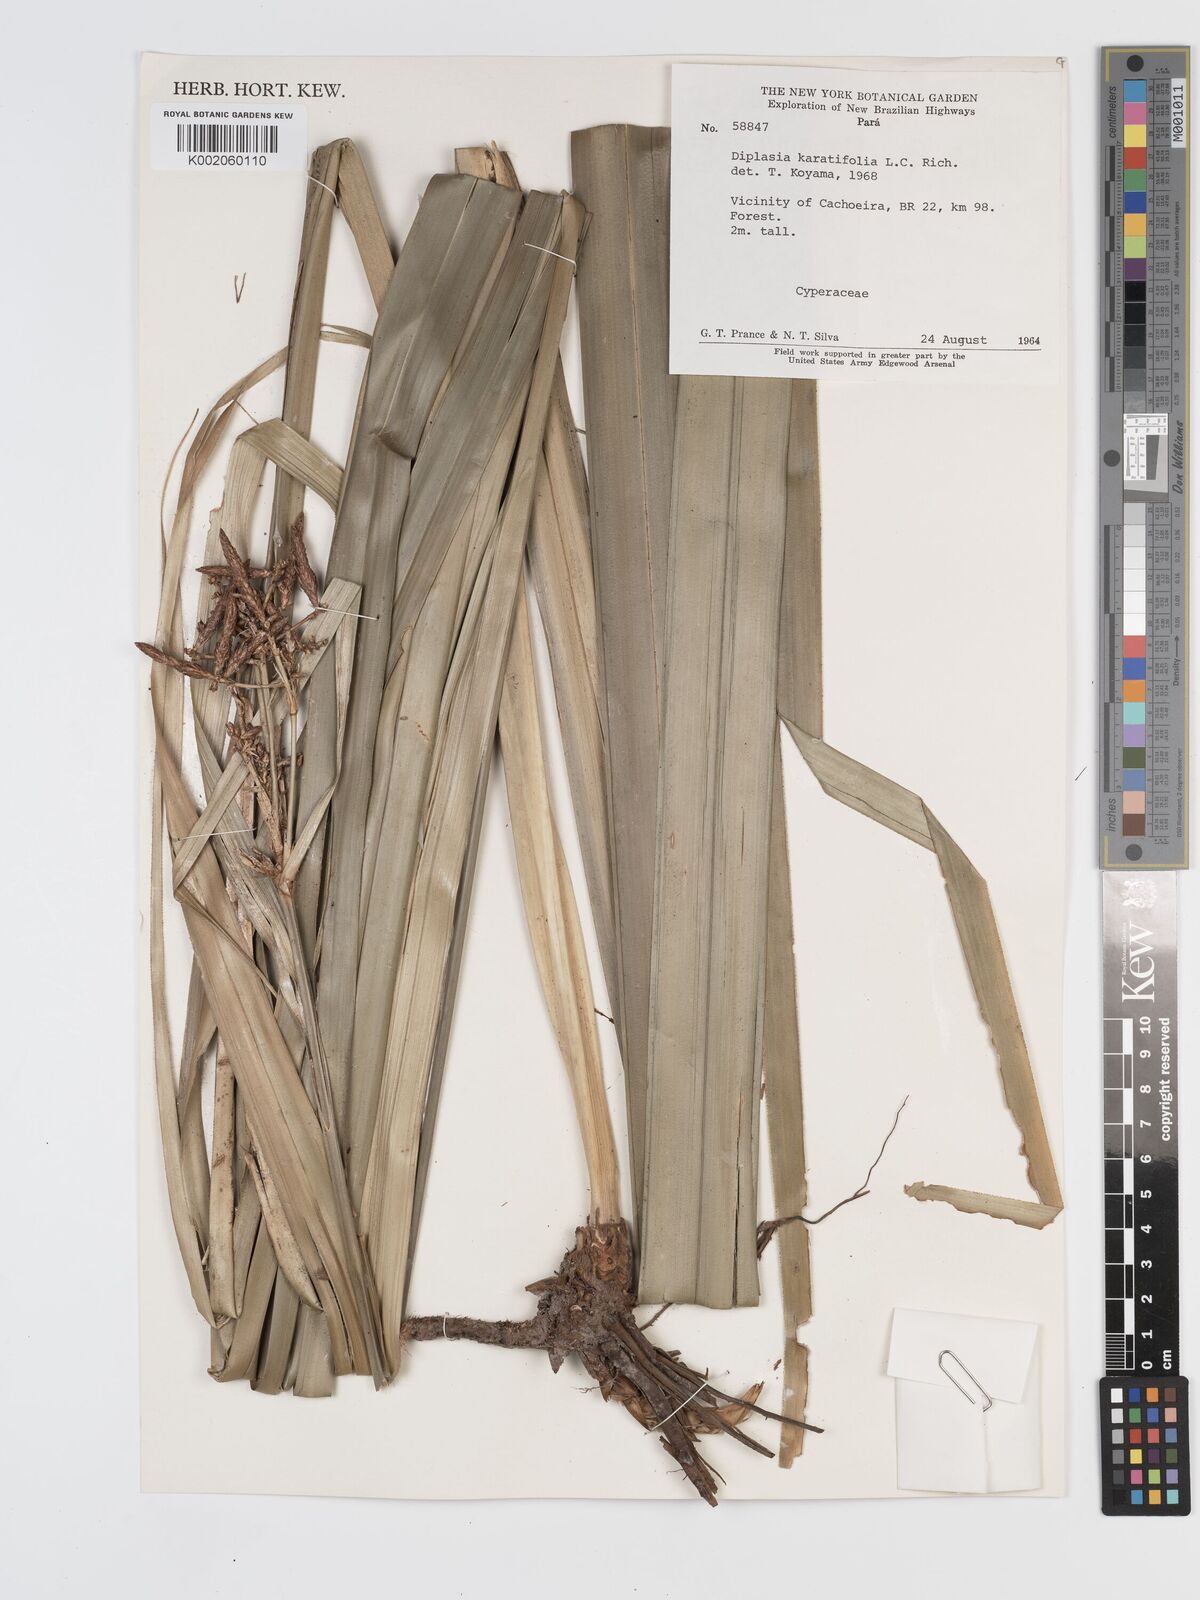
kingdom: Plantae
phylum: Tracheophyta
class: Liliopsida
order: Poales
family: Cyperaceae
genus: Diplasia
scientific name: Diplasia karatifolia
